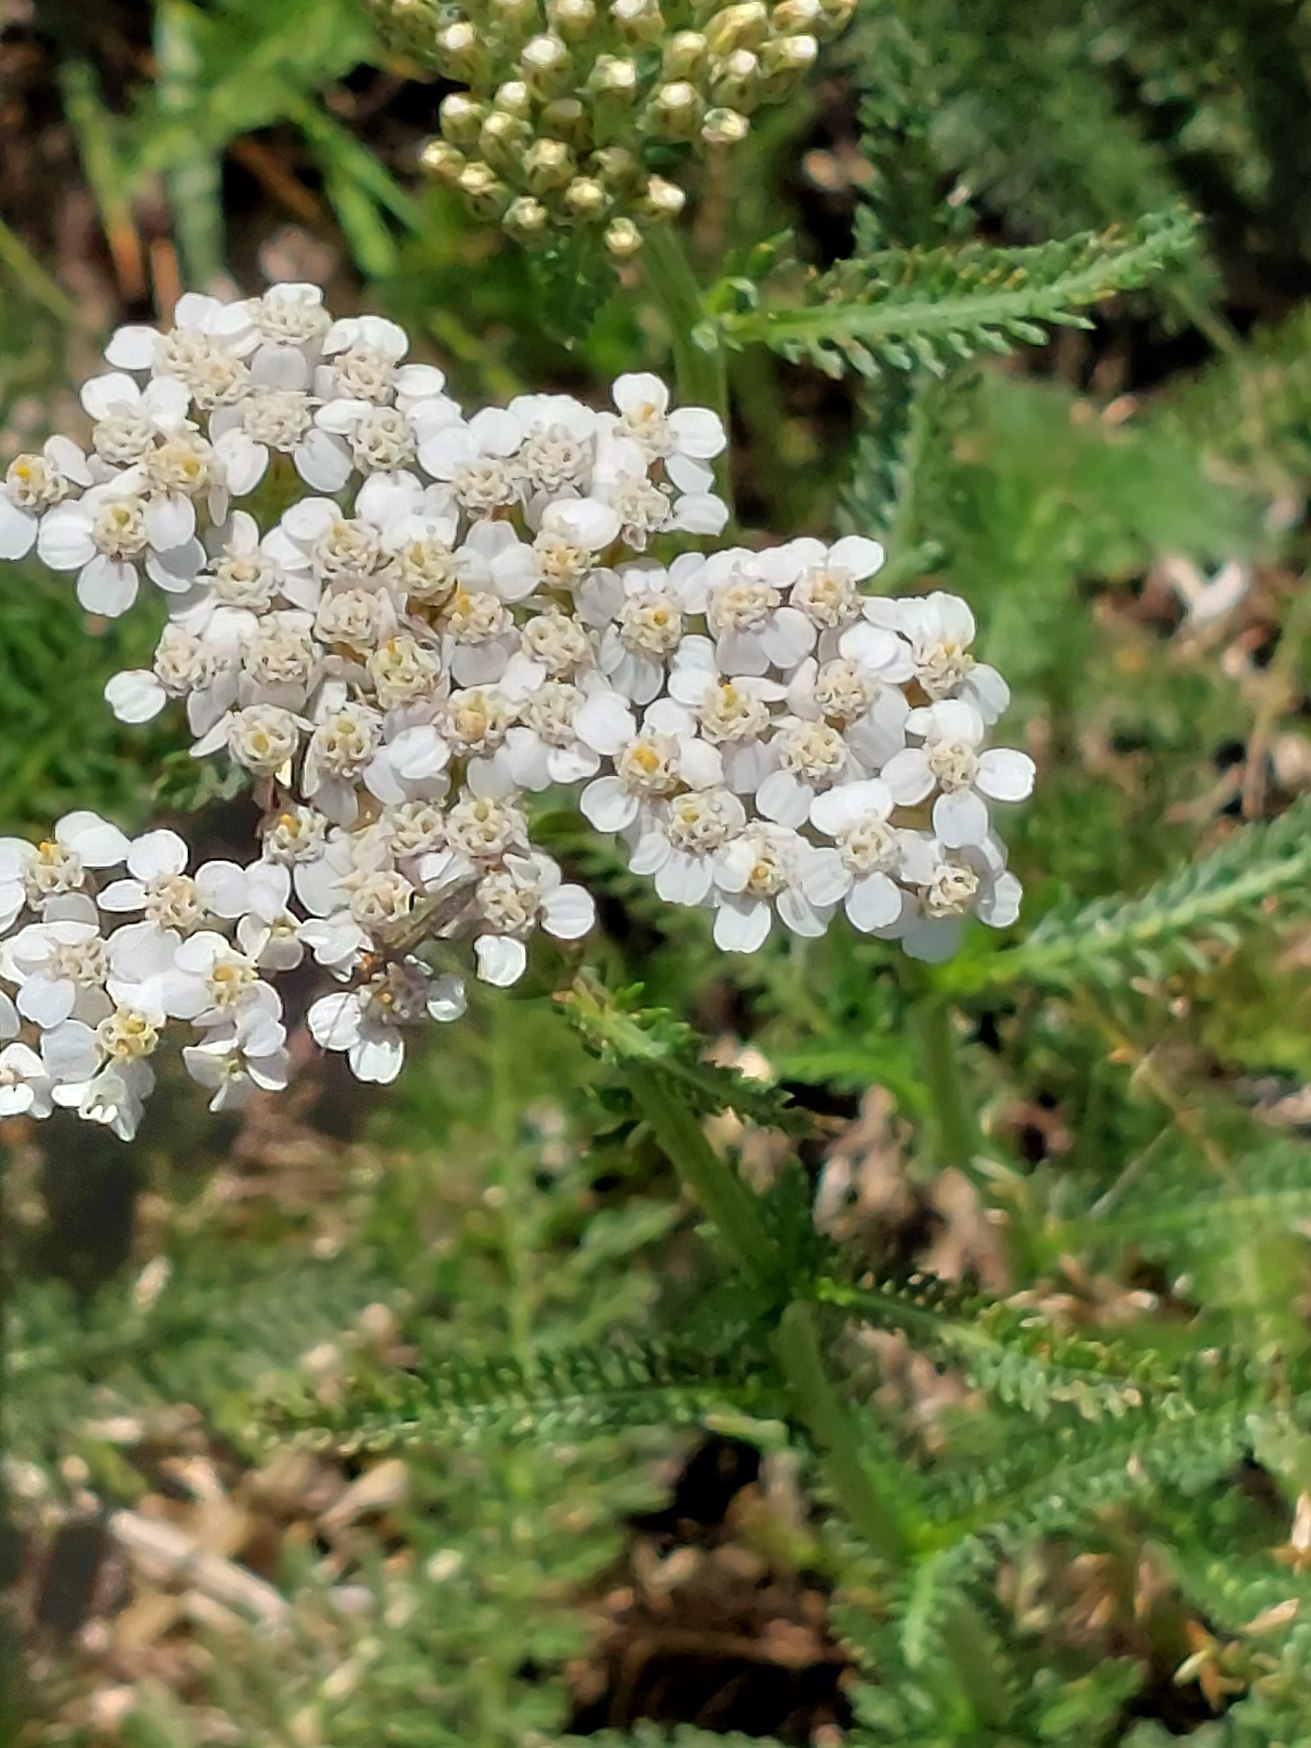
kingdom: Plantae
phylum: Tracheophyta
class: Magnoliopsida
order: Asterales
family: Asteraceae
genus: Achillea
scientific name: Achillea millefolium
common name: Almindelig røllike
